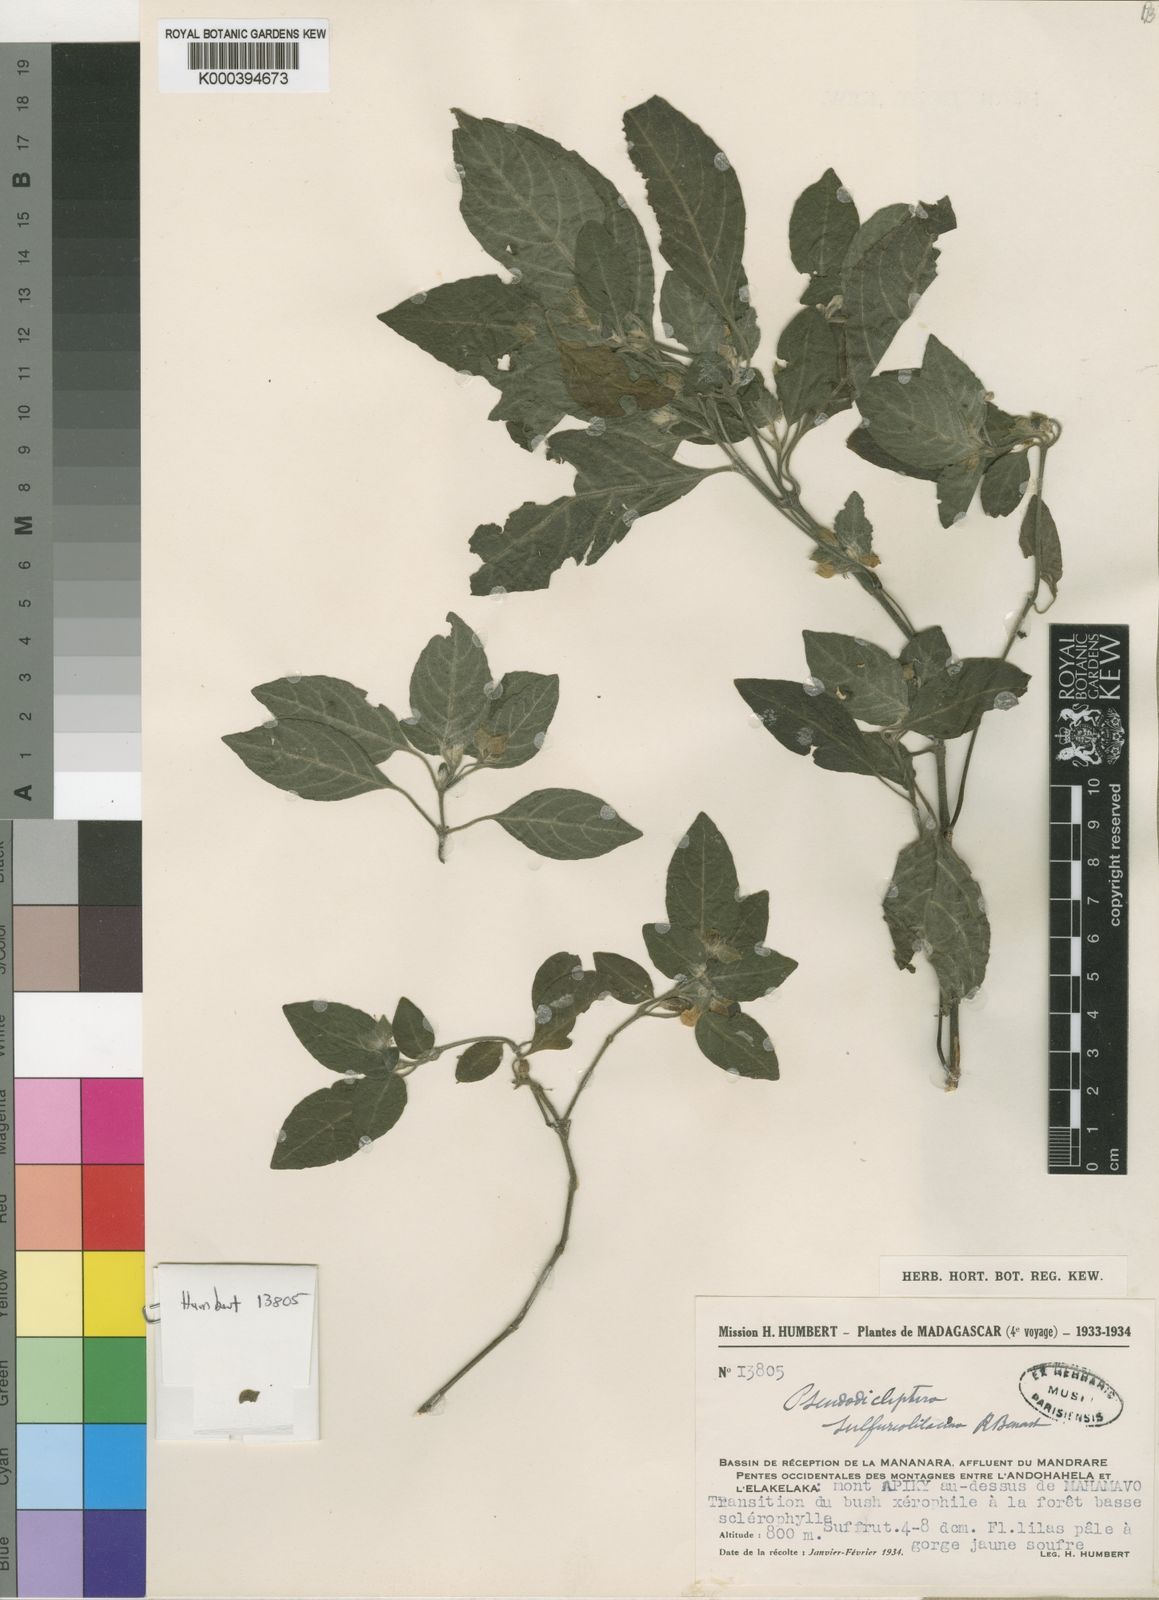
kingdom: Plantae
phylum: Tracheophyta
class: Magnoliopsida
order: Lamiales
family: Acanthaceae
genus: Pseudodicliptera
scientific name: Pseudodicliptera sulfureolilacina
